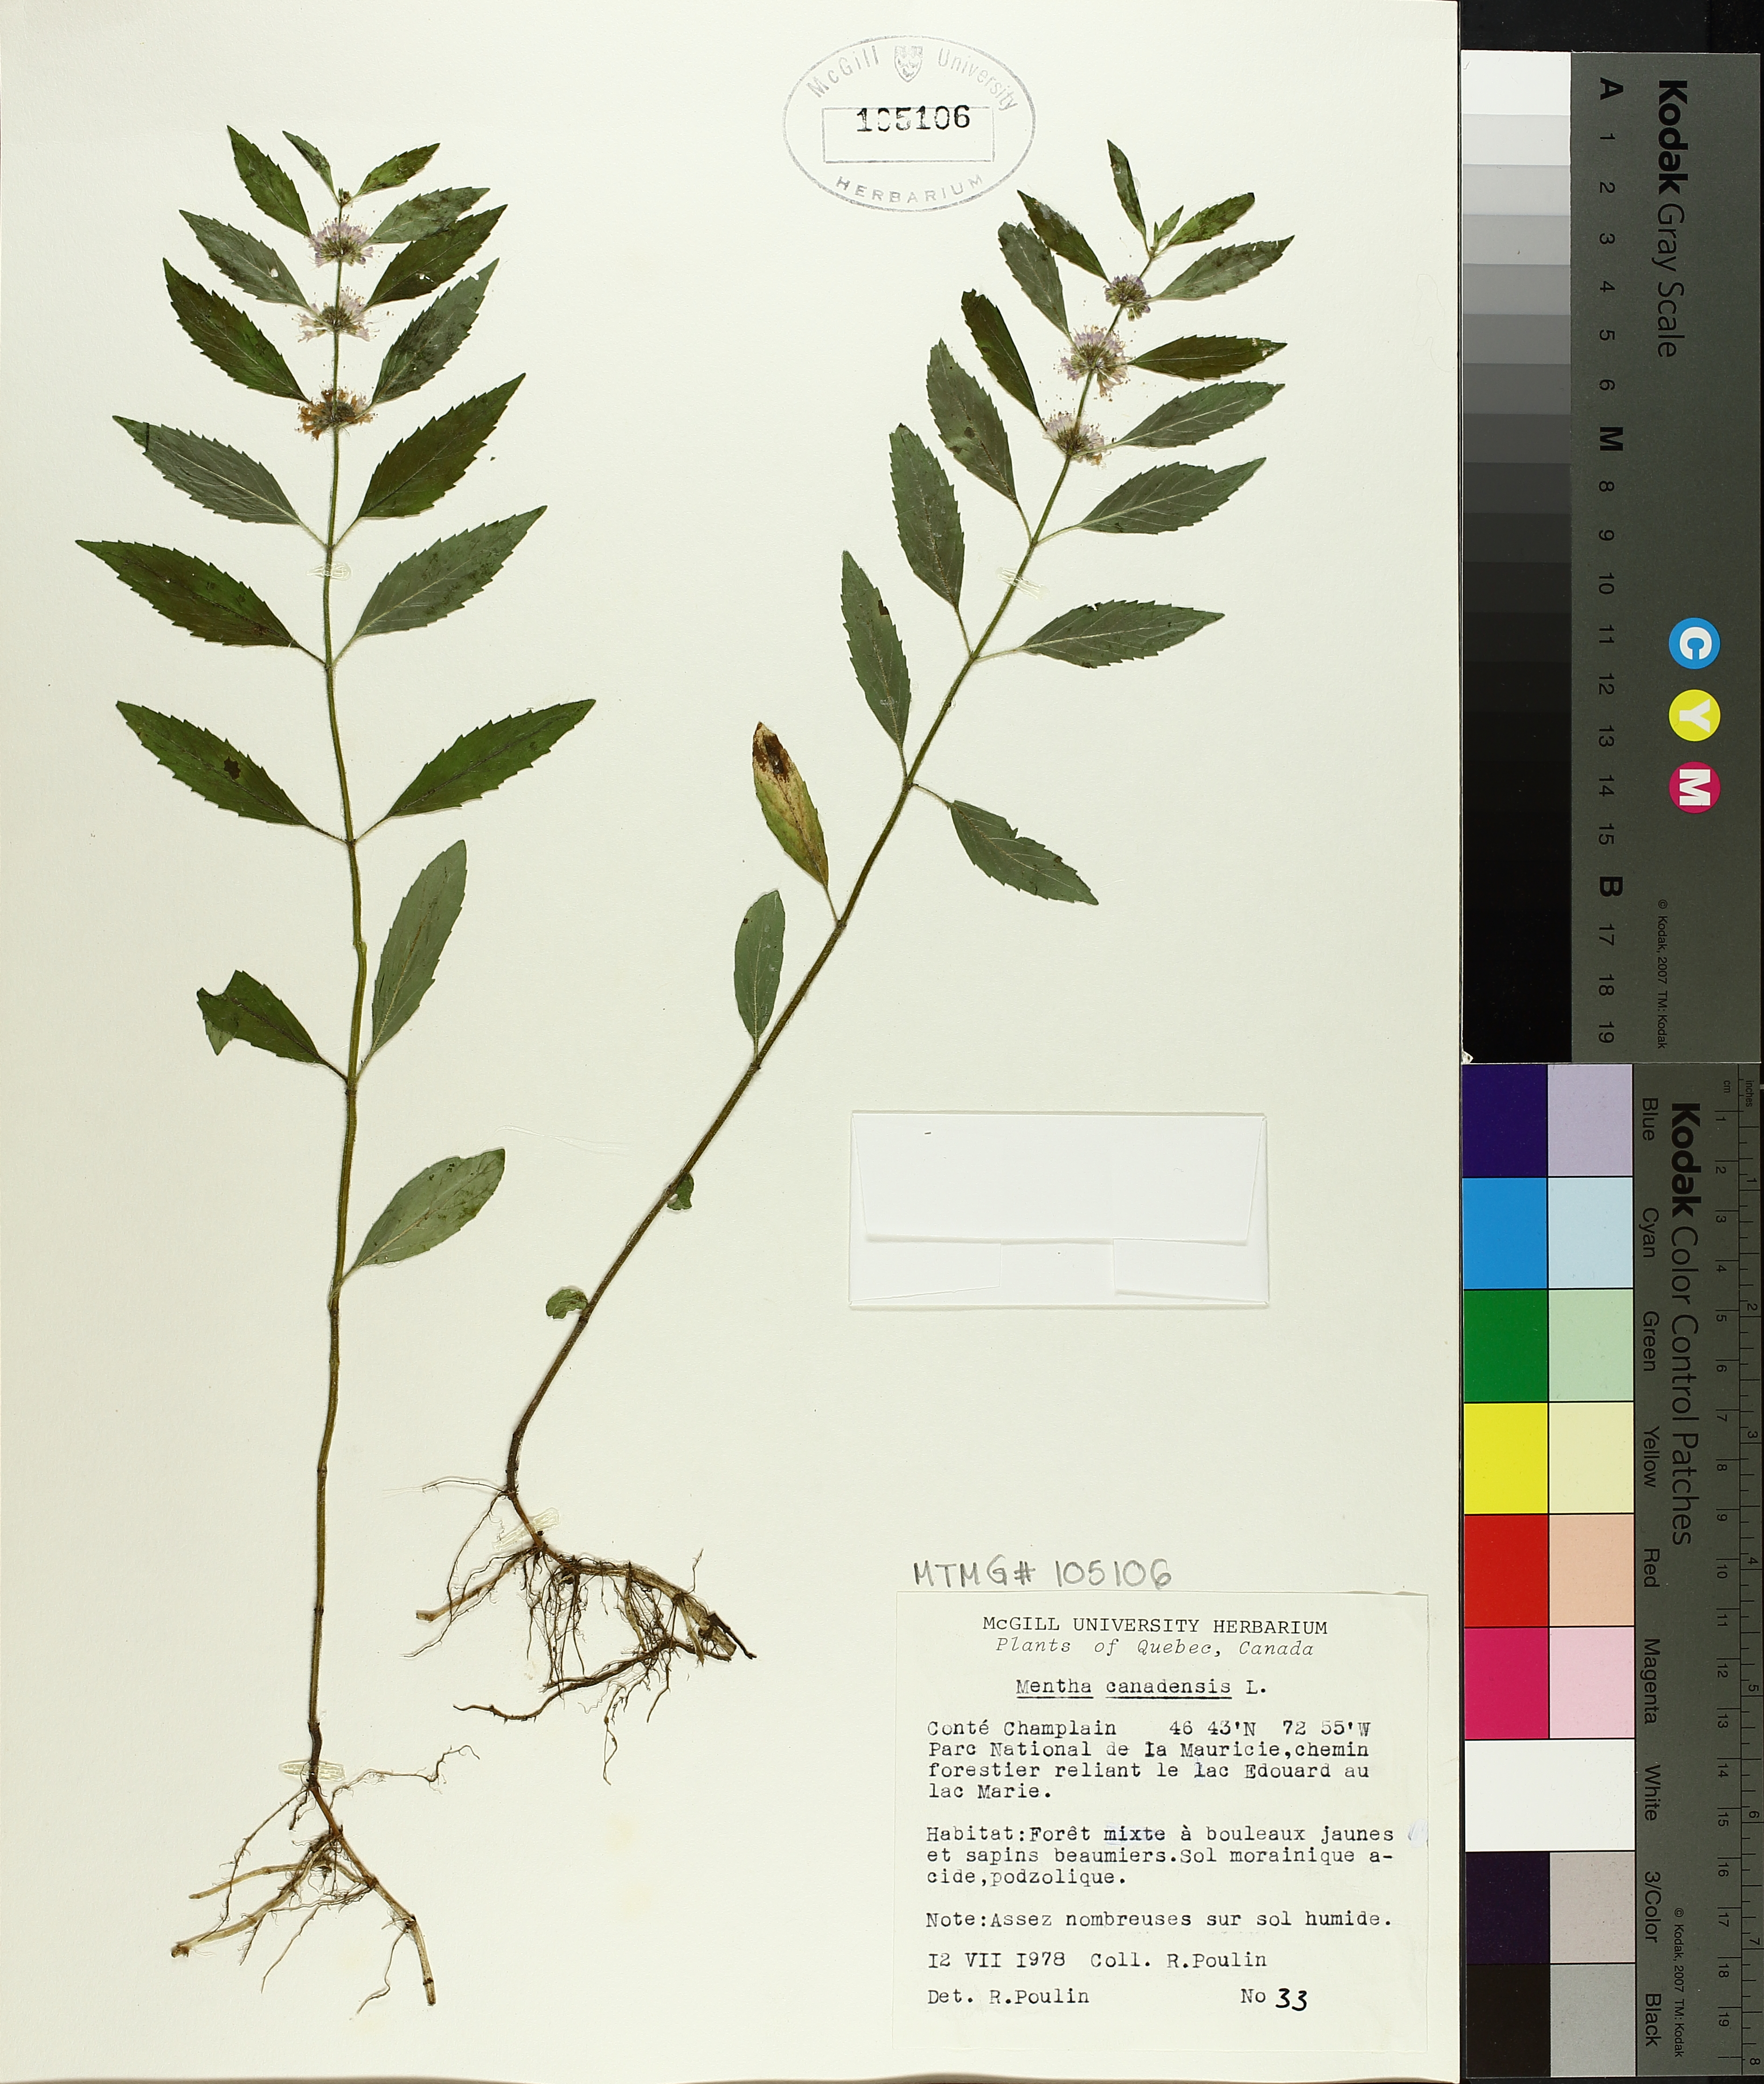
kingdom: Plantae
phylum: Tracheophyta
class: Magnoliopsida
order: Lamiales
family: Lamiaceae
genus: Mentha
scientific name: Mentha canadensis
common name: American corn mint
